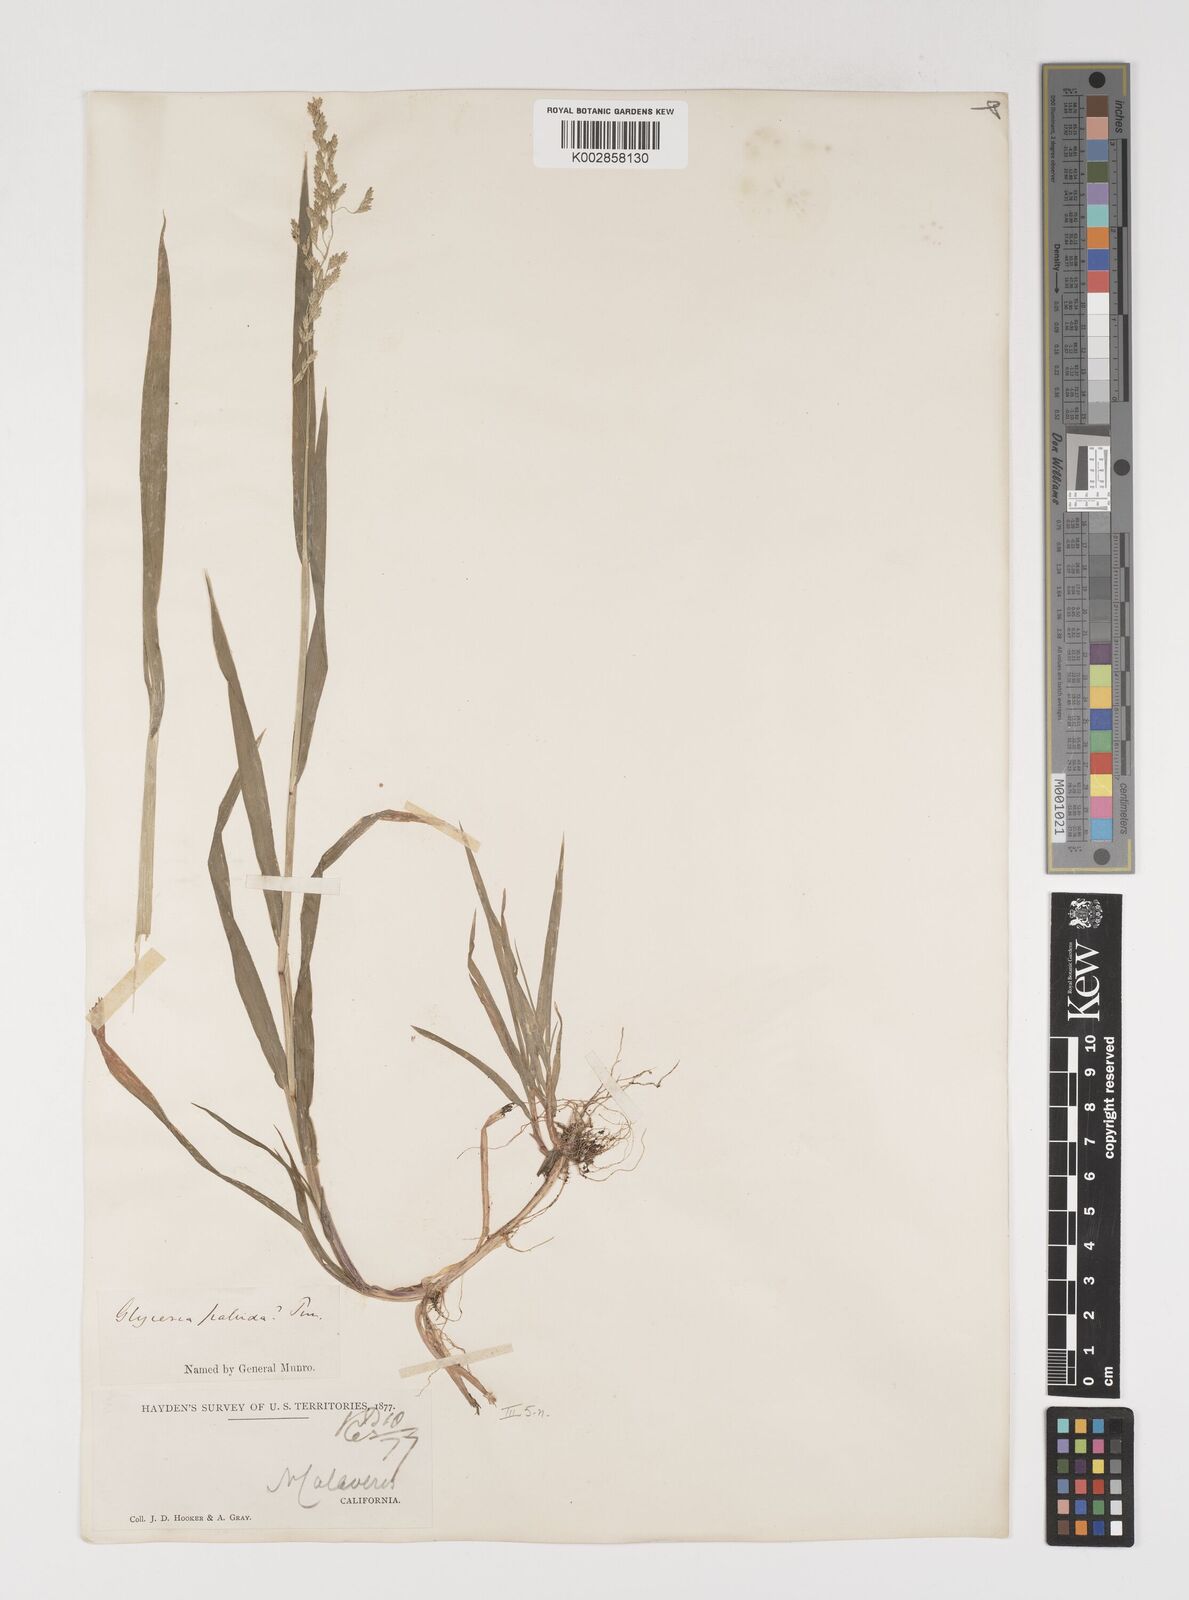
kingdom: Plantae
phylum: Tracheophyta
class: Liliopsida
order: Poales
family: Poaceae
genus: Torreyochloa
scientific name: Torreyochloa pallida
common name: Pale false mannagrass
